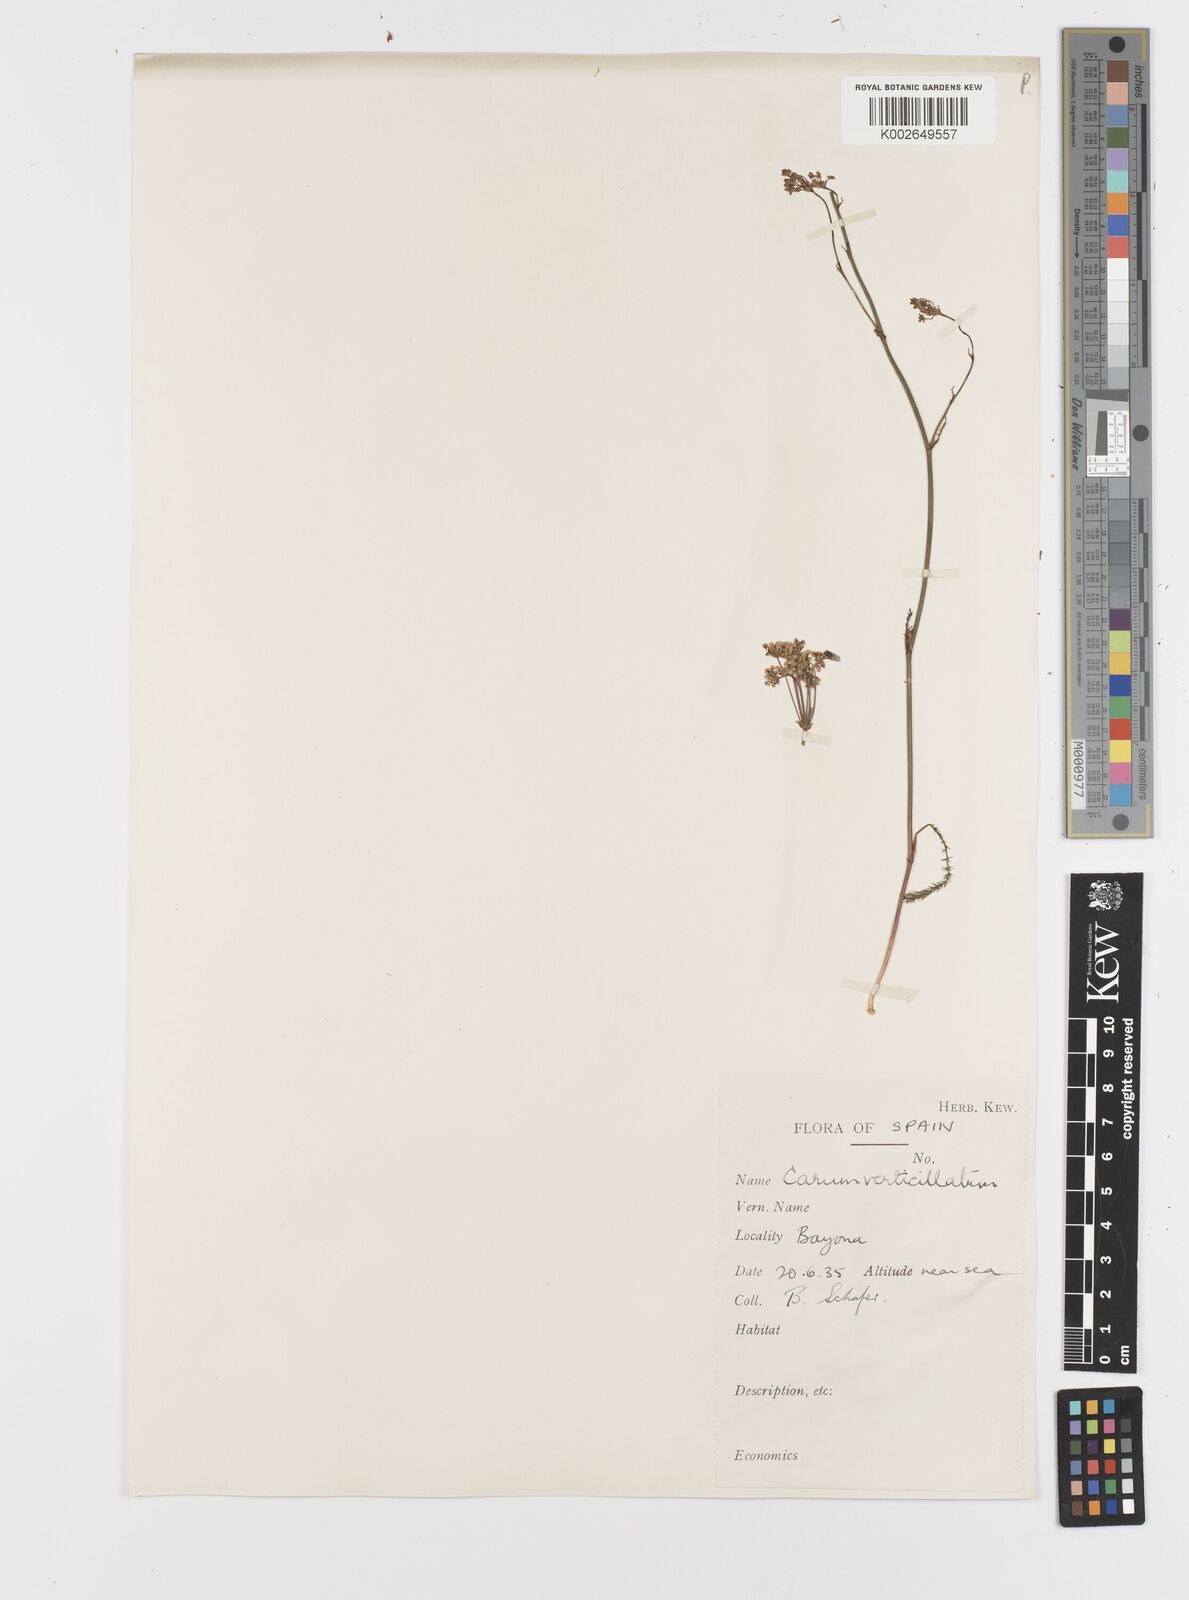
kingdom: Plantae
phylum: Tracheophyta
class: Magnoliopsida
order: Apiales
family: Apiaceae
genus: Trocdaris
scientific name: Trocdaris verticillatum
